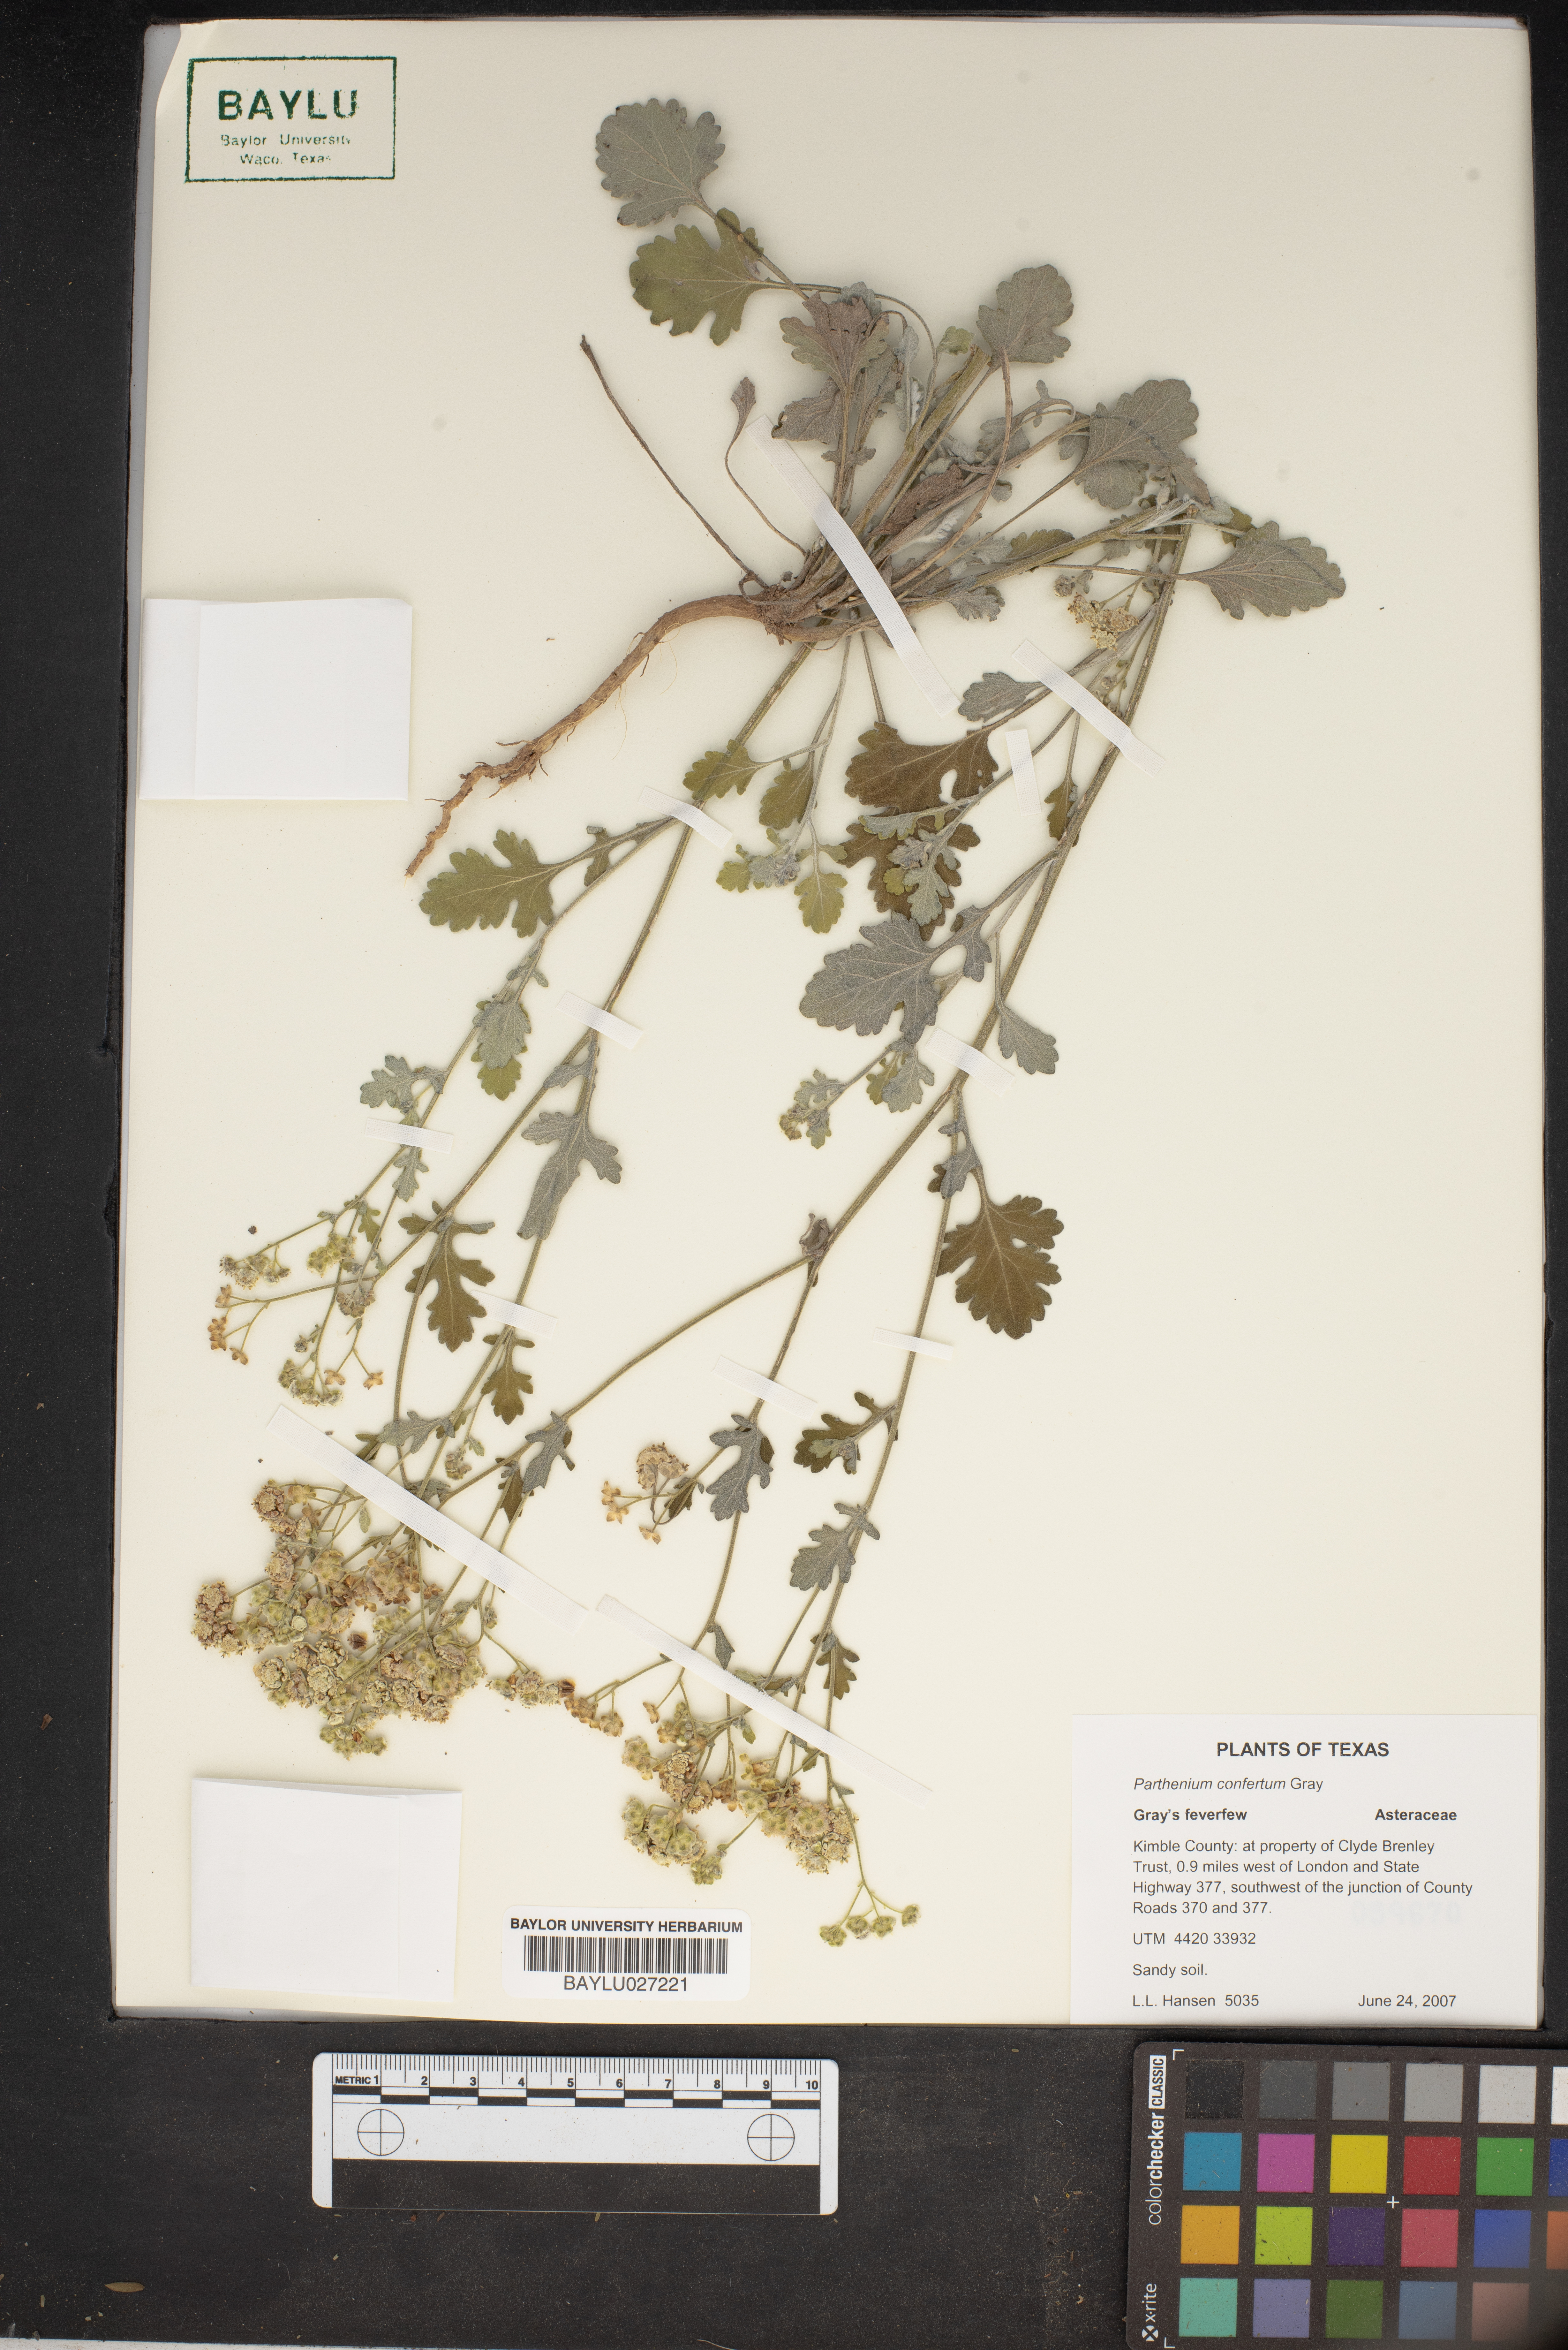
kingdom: Plantae
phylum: Tracheophyta
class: Magnoliopsida
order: Asterales
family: Asteraceae
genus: Parthenium
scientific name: Parthenium confertum
